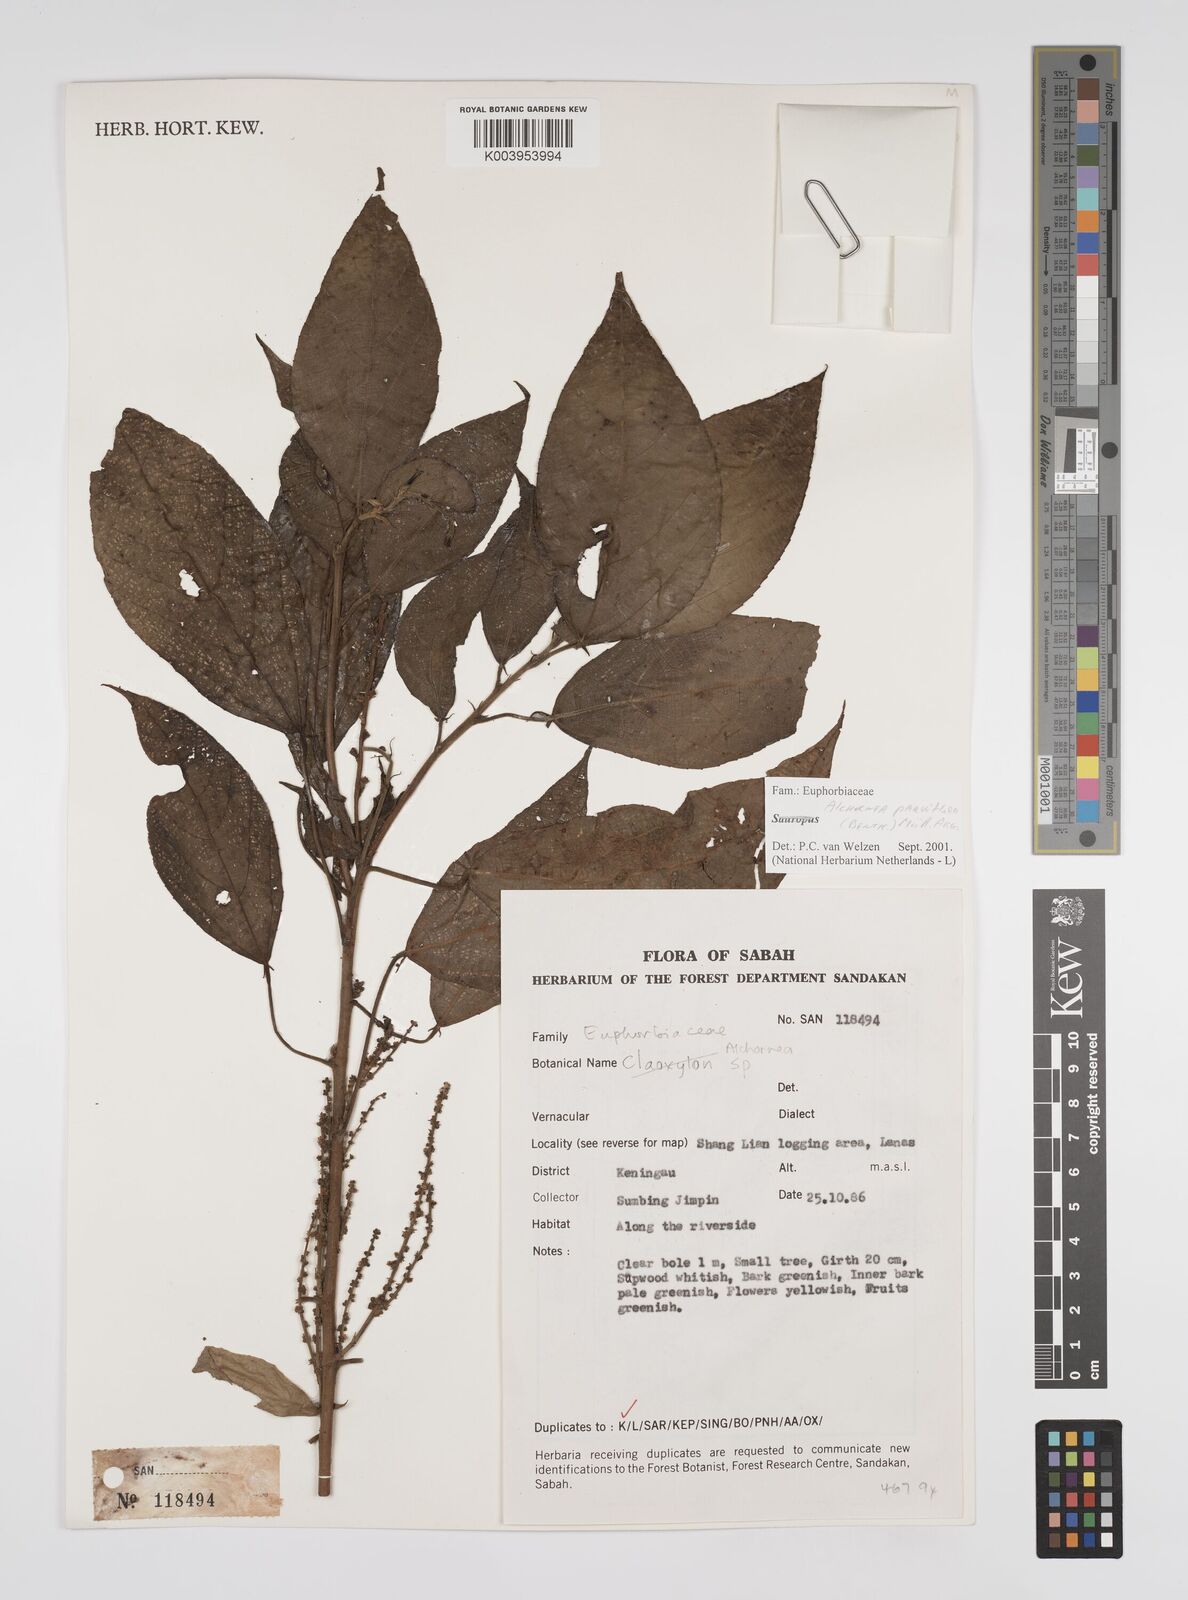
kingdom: Plantae
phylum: Tracheophyta
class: Magnoliopsida
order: Malpighiales
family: Euphorbiaceae
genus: Alchornea
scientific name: Alchornea parviflora
